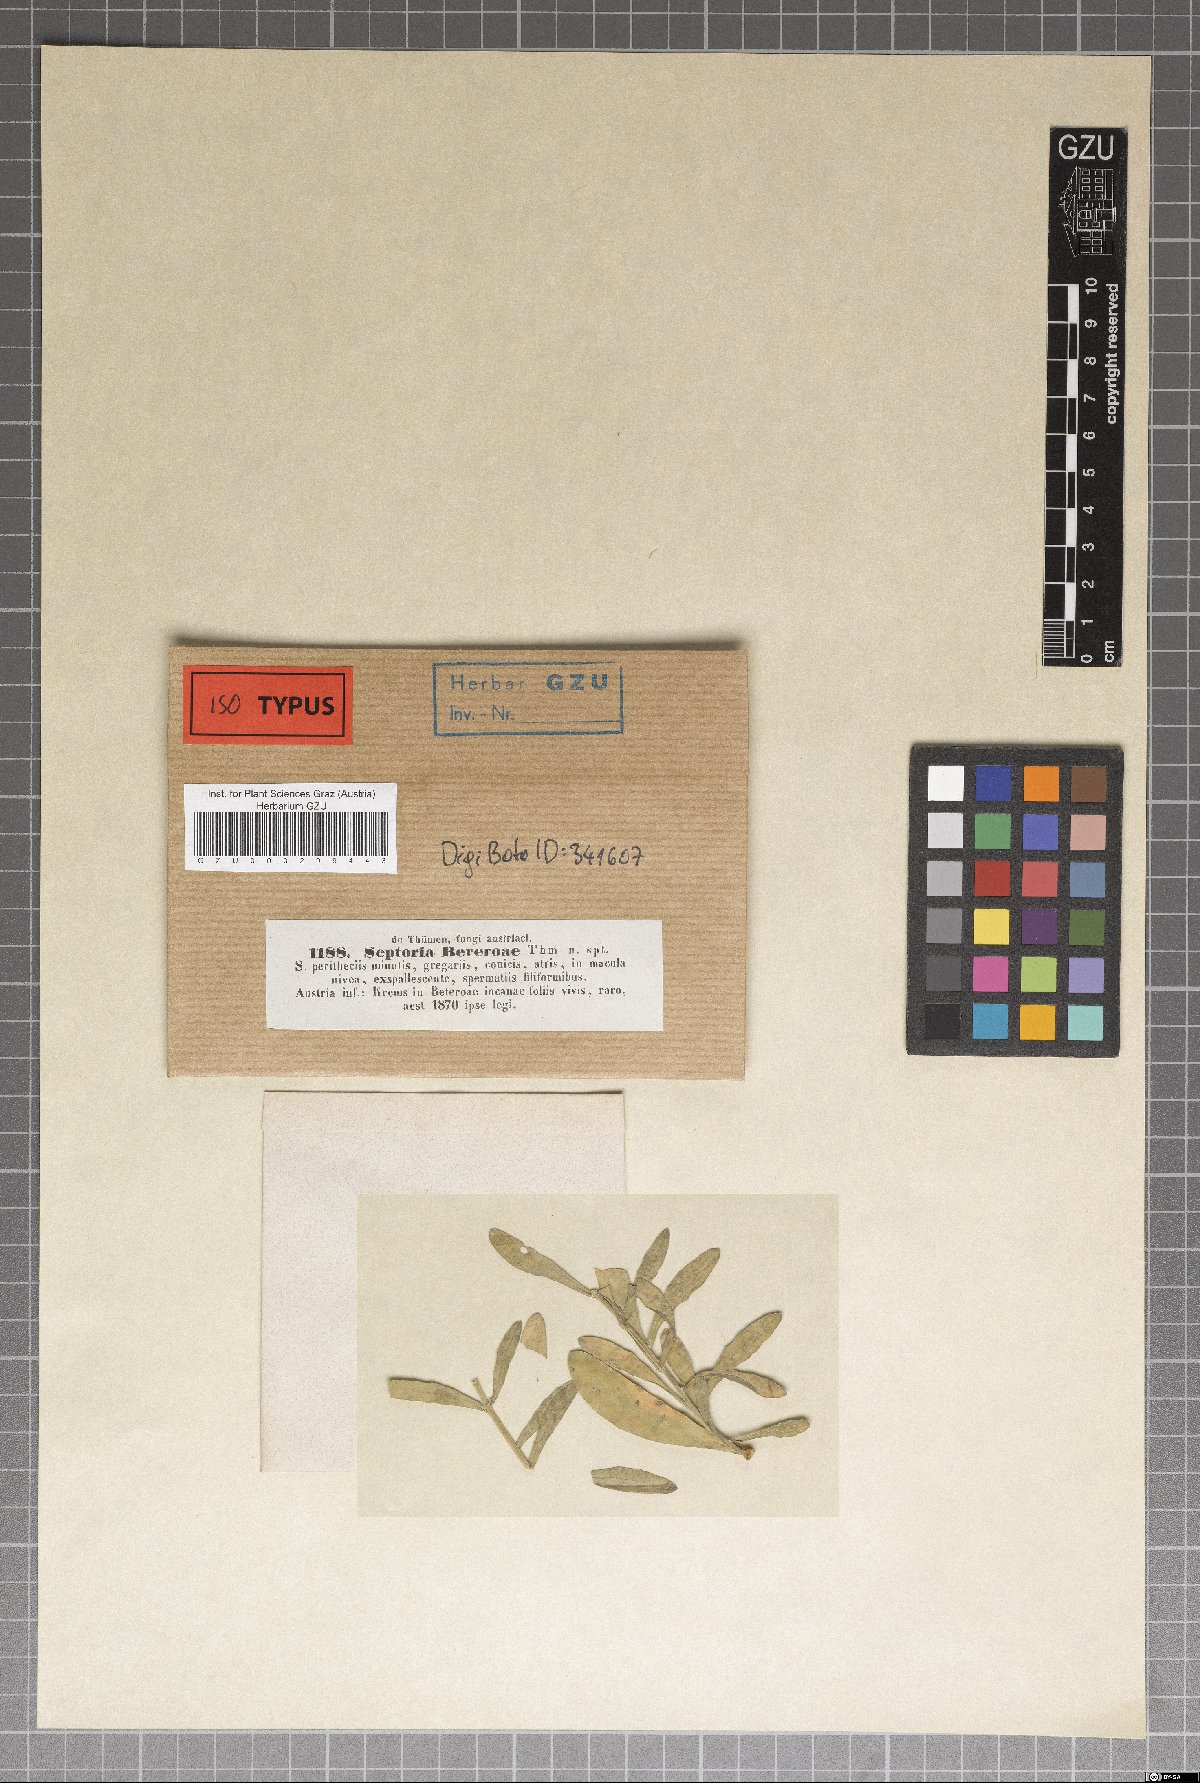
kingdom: Fungi
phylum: Ascomycota
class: Dothideomycetes
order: Capnodiales
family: Mycosphaerellaceae
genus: Septoria
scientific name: Septoria berteroae
